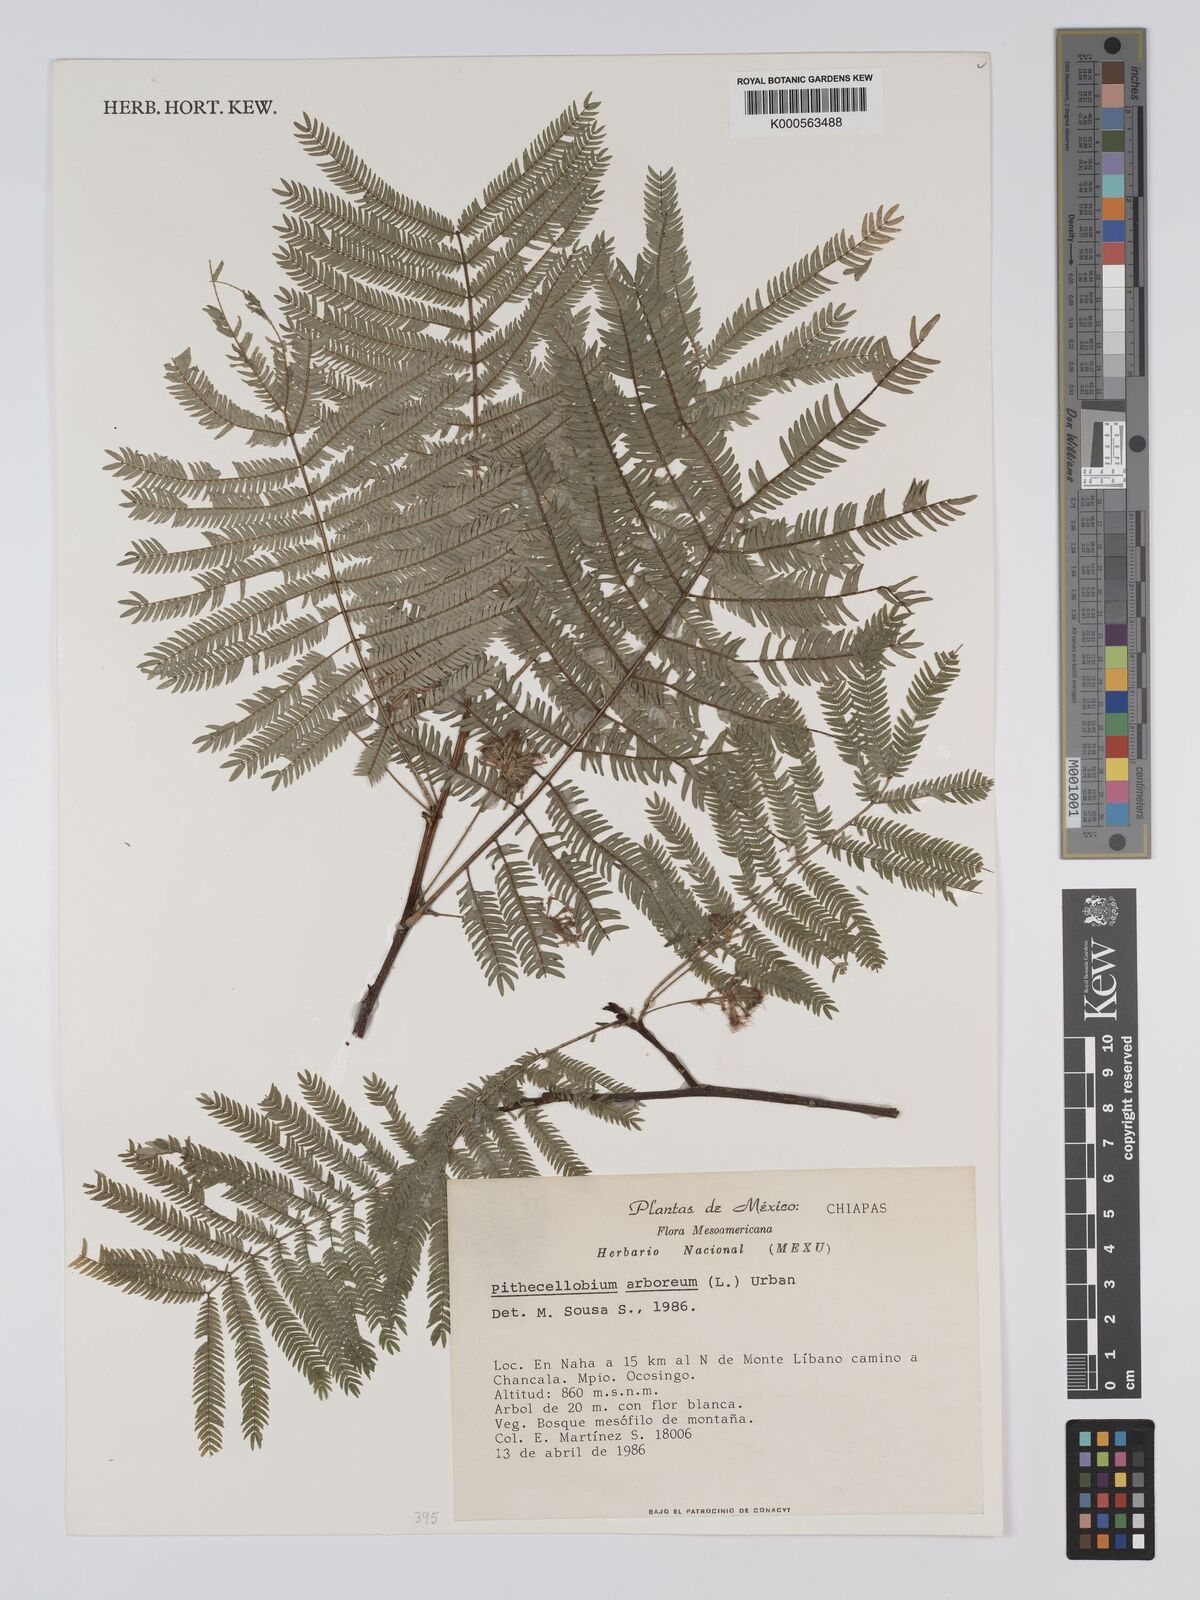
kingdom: Plantae
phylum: Tracheophyta
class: Magnoliopsida
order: Fabales
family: Fabaceae
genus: Cojoba
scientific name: Cojoba arborea
